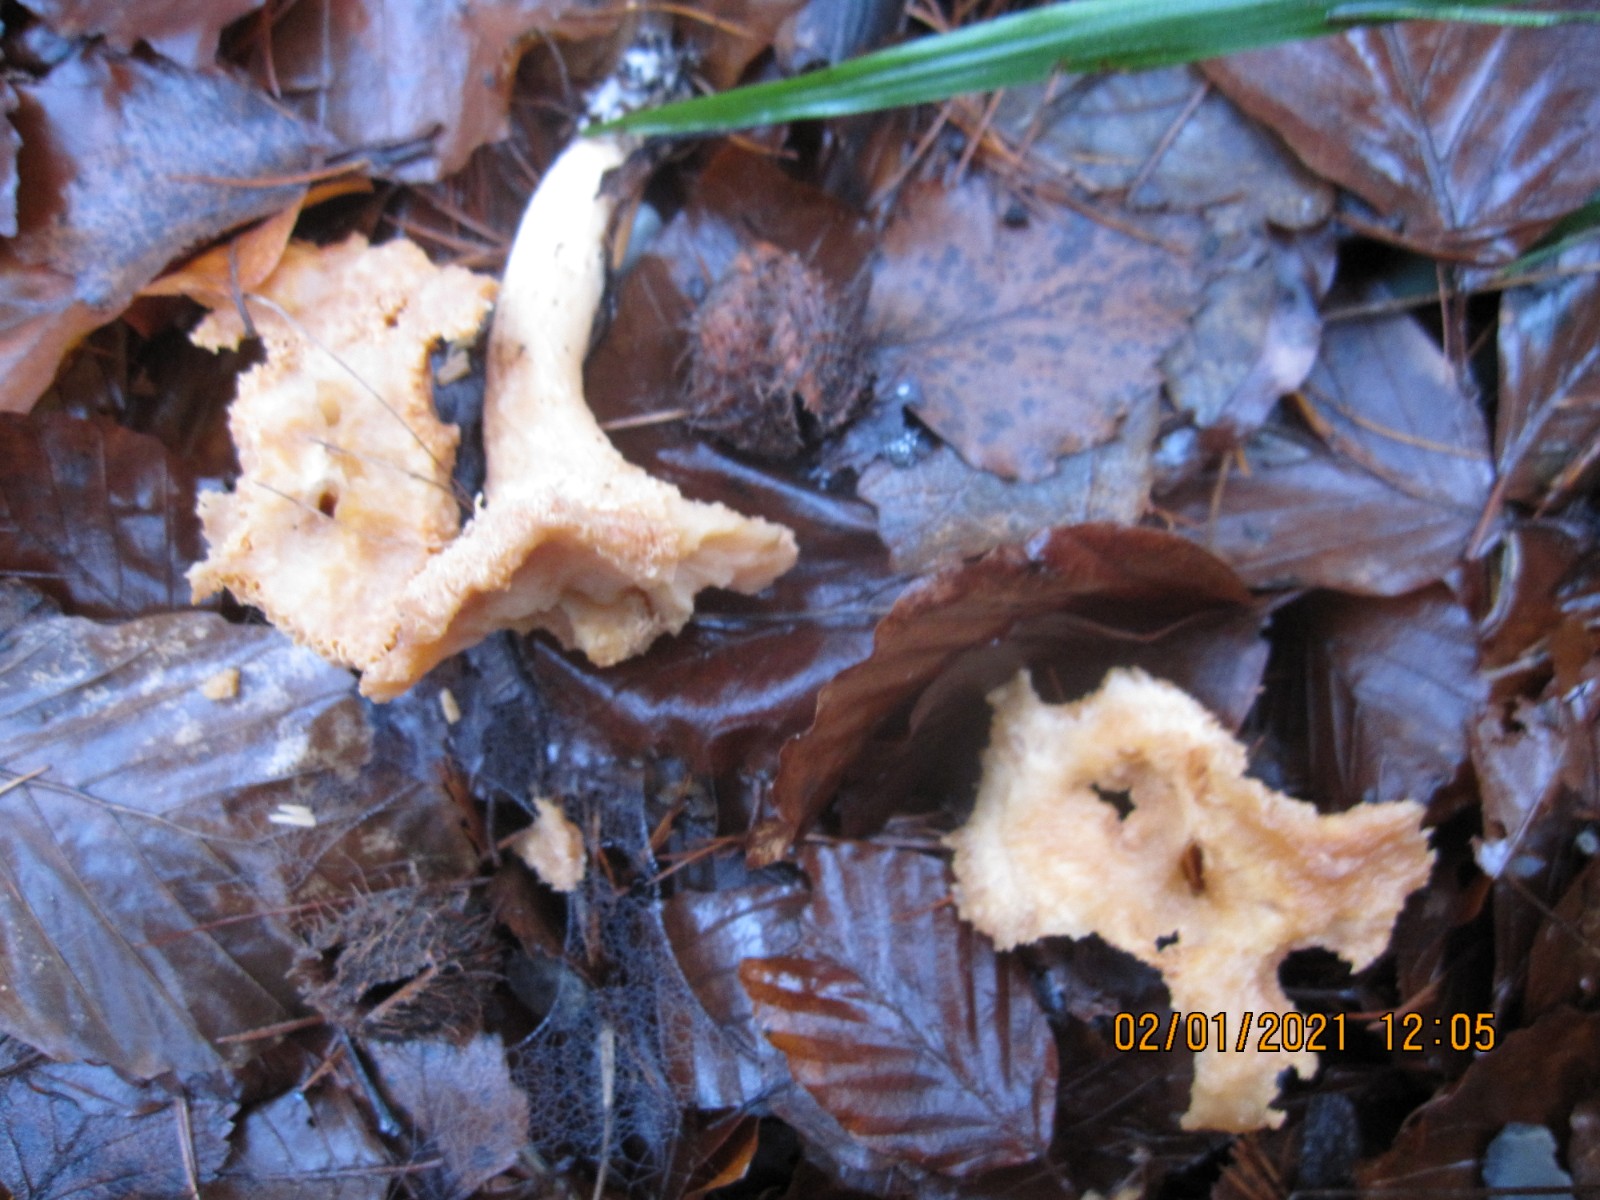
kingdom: Fungi
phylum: Basidiomycota
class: Agaricomycetes
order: Cantharellales
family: Hydnaceae
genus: Hydnum
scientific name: Hydnum umbilicatum
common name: navle-pigsvamp
